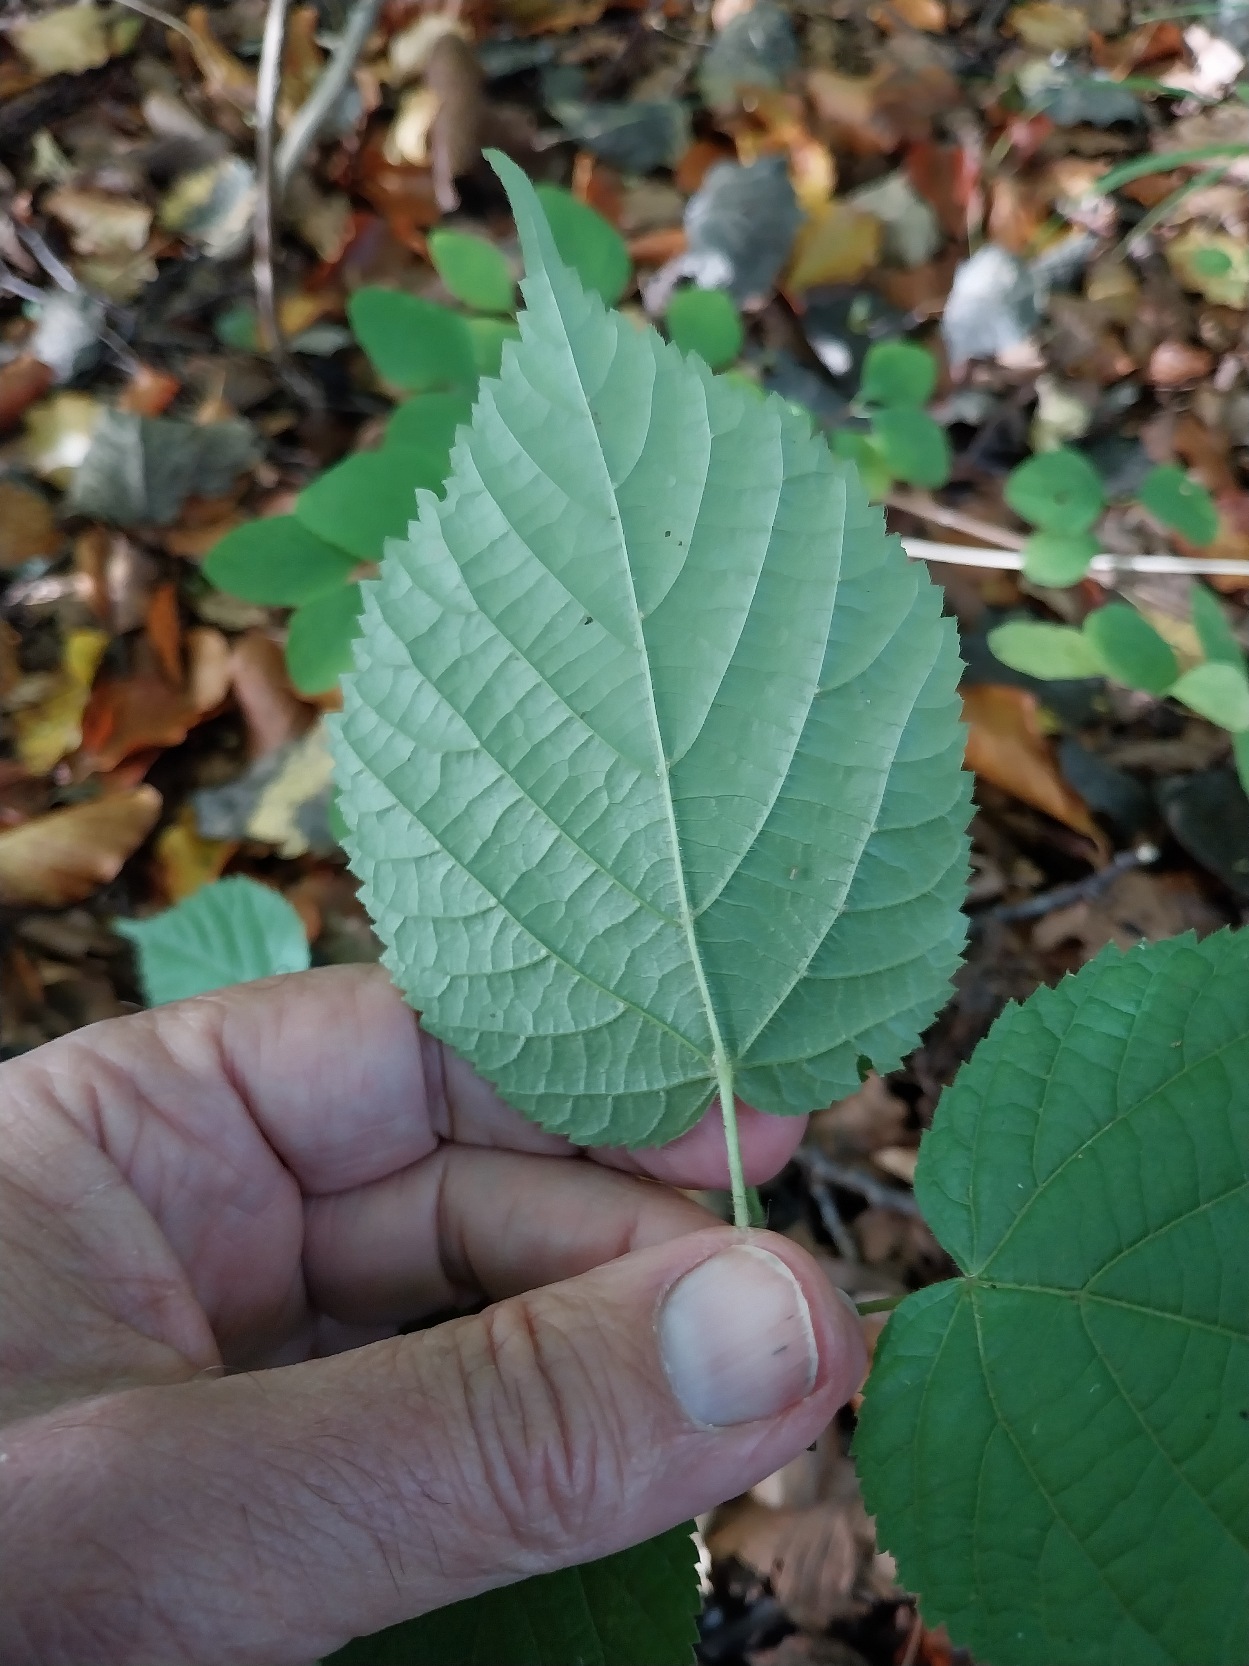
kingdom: Plantae
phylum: Tracheophyta
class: Magnoliopsida
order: Malvales
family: Malvaceae
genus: Tilia
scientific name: Tilia platyphyllos
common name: Storbladet lind
